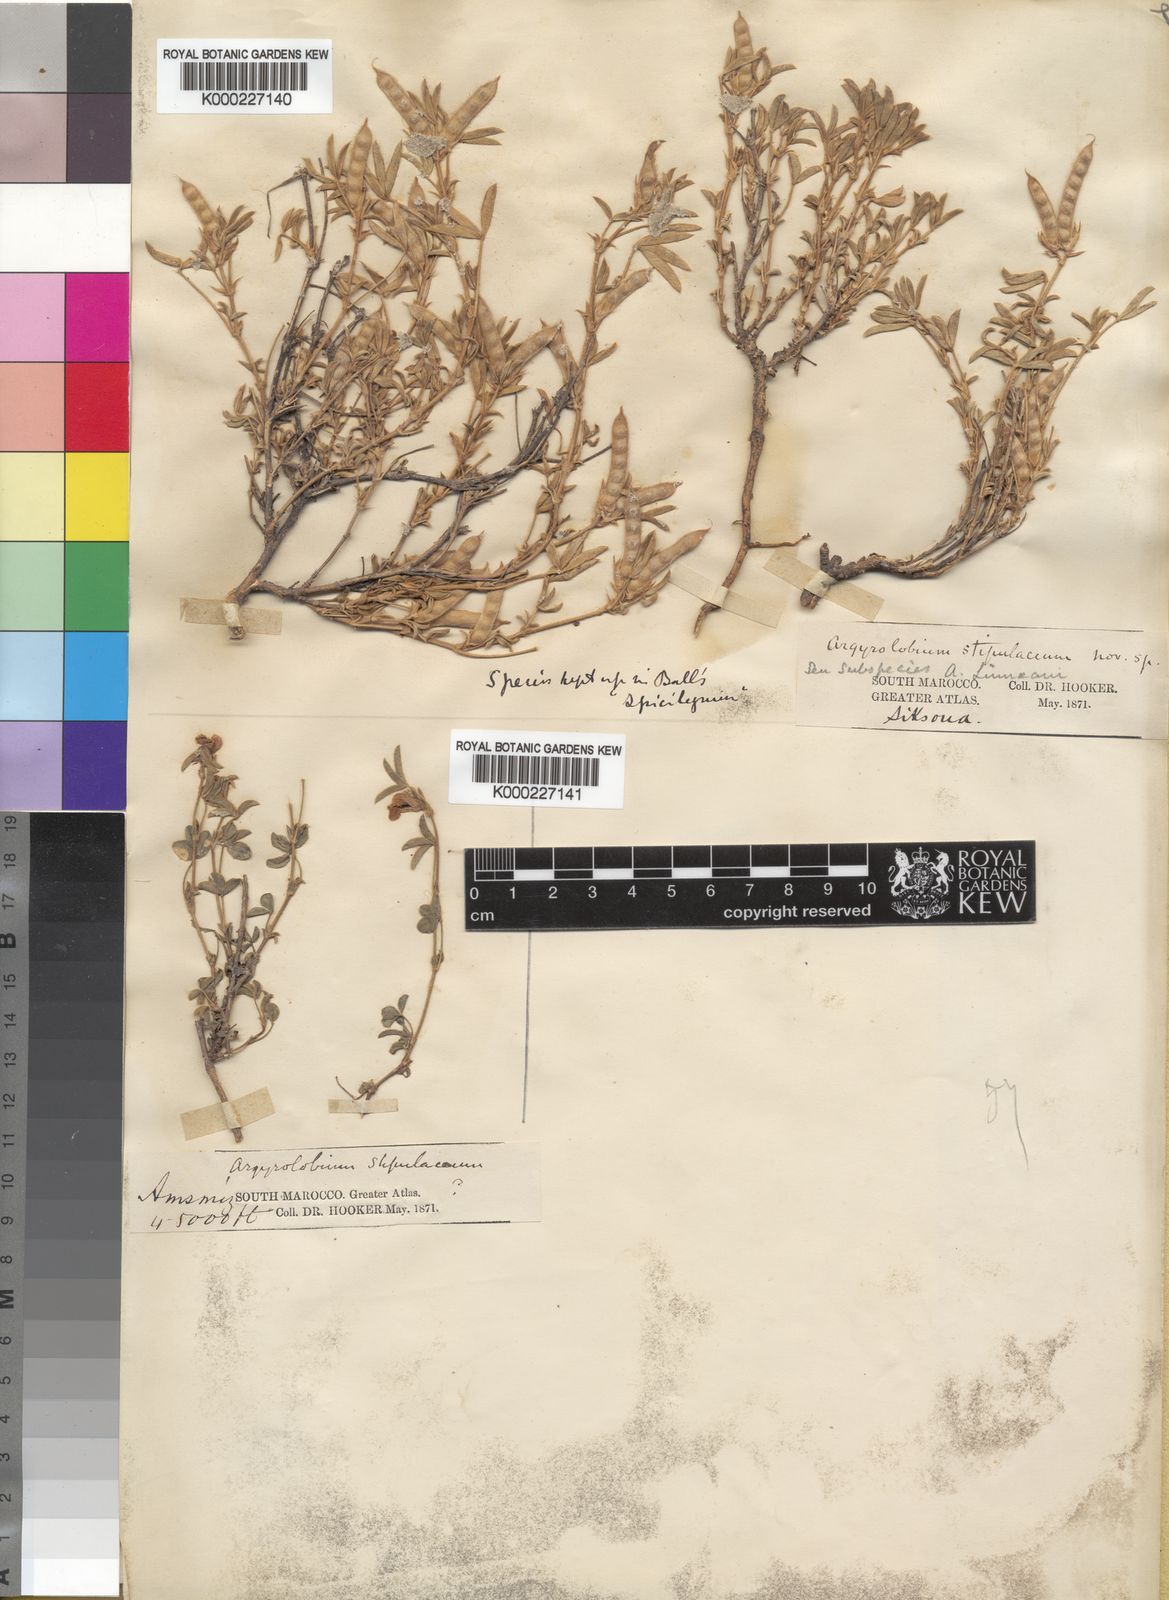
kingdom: Plantae
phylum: Tracheophyta
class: Magnoliopsida
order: Fabales
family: Fabaceae
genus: Argyrolobium
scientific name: Argyrolobium stipulaceum
